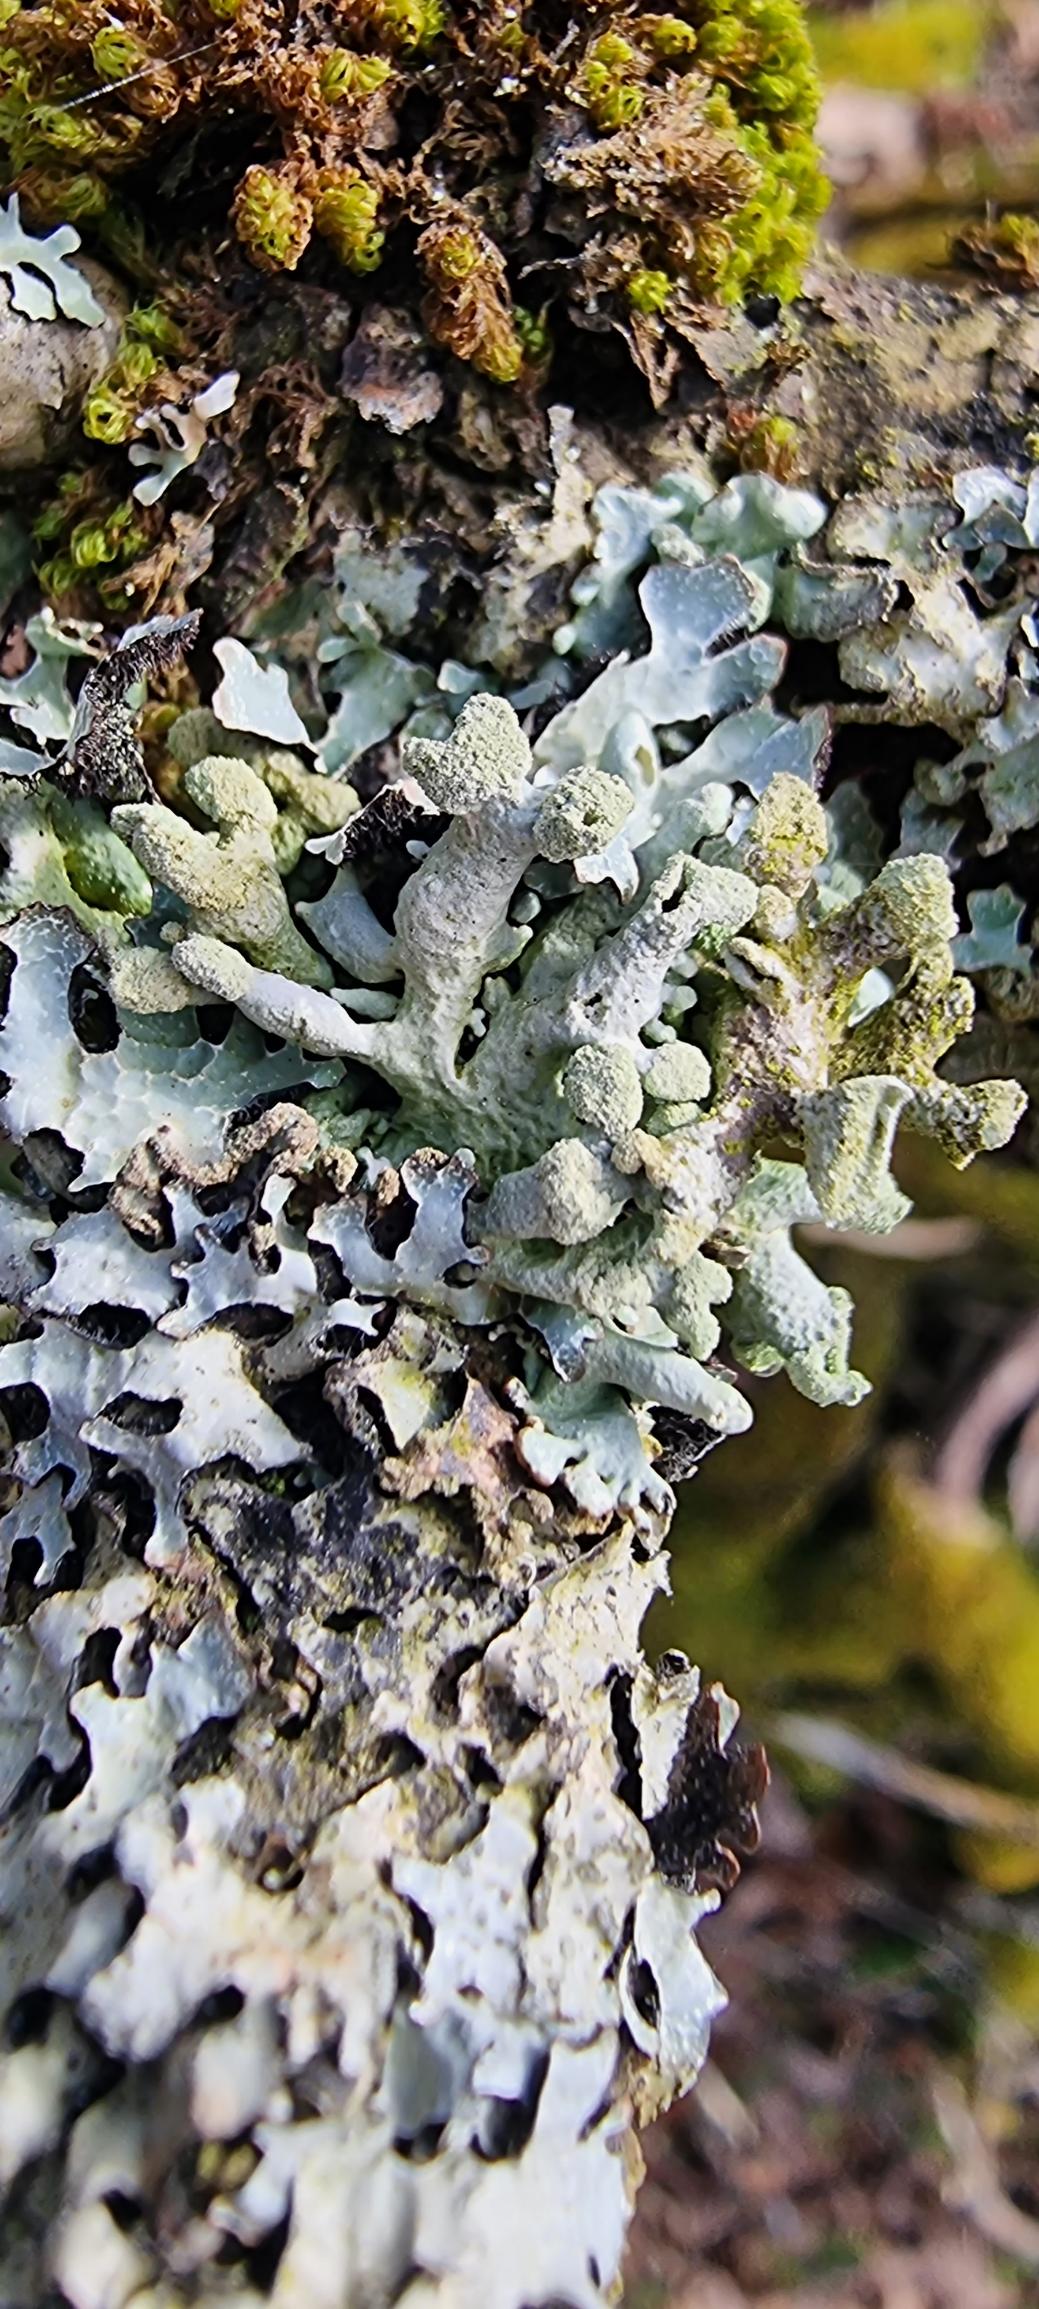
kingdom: Fungi
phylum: Ascomycota
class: Lecanoromycetes
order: Lecanorales
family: Parmeliaceae
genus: Hypogymnia
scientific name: Hypogymnia tubulosa
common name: Finger-kvistlav
